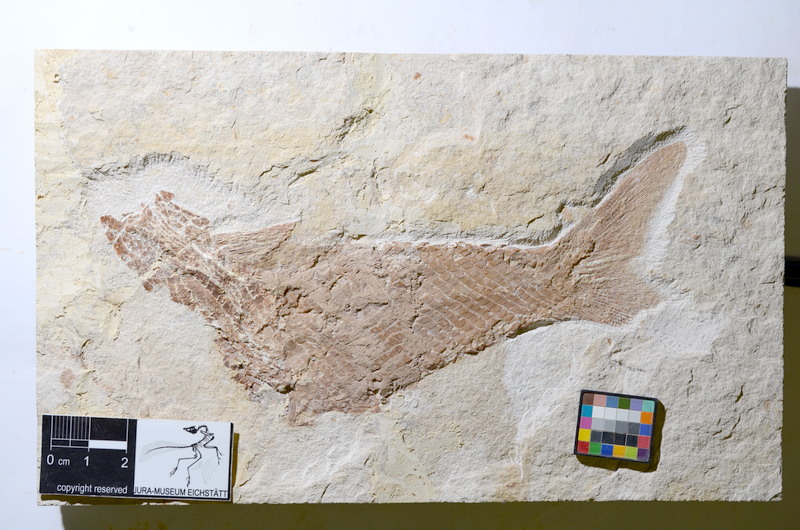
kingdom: Animalia
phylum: Chordata
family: Ankylophoridae
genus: Siemensichthys
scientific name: Siemensichthys siemensi
